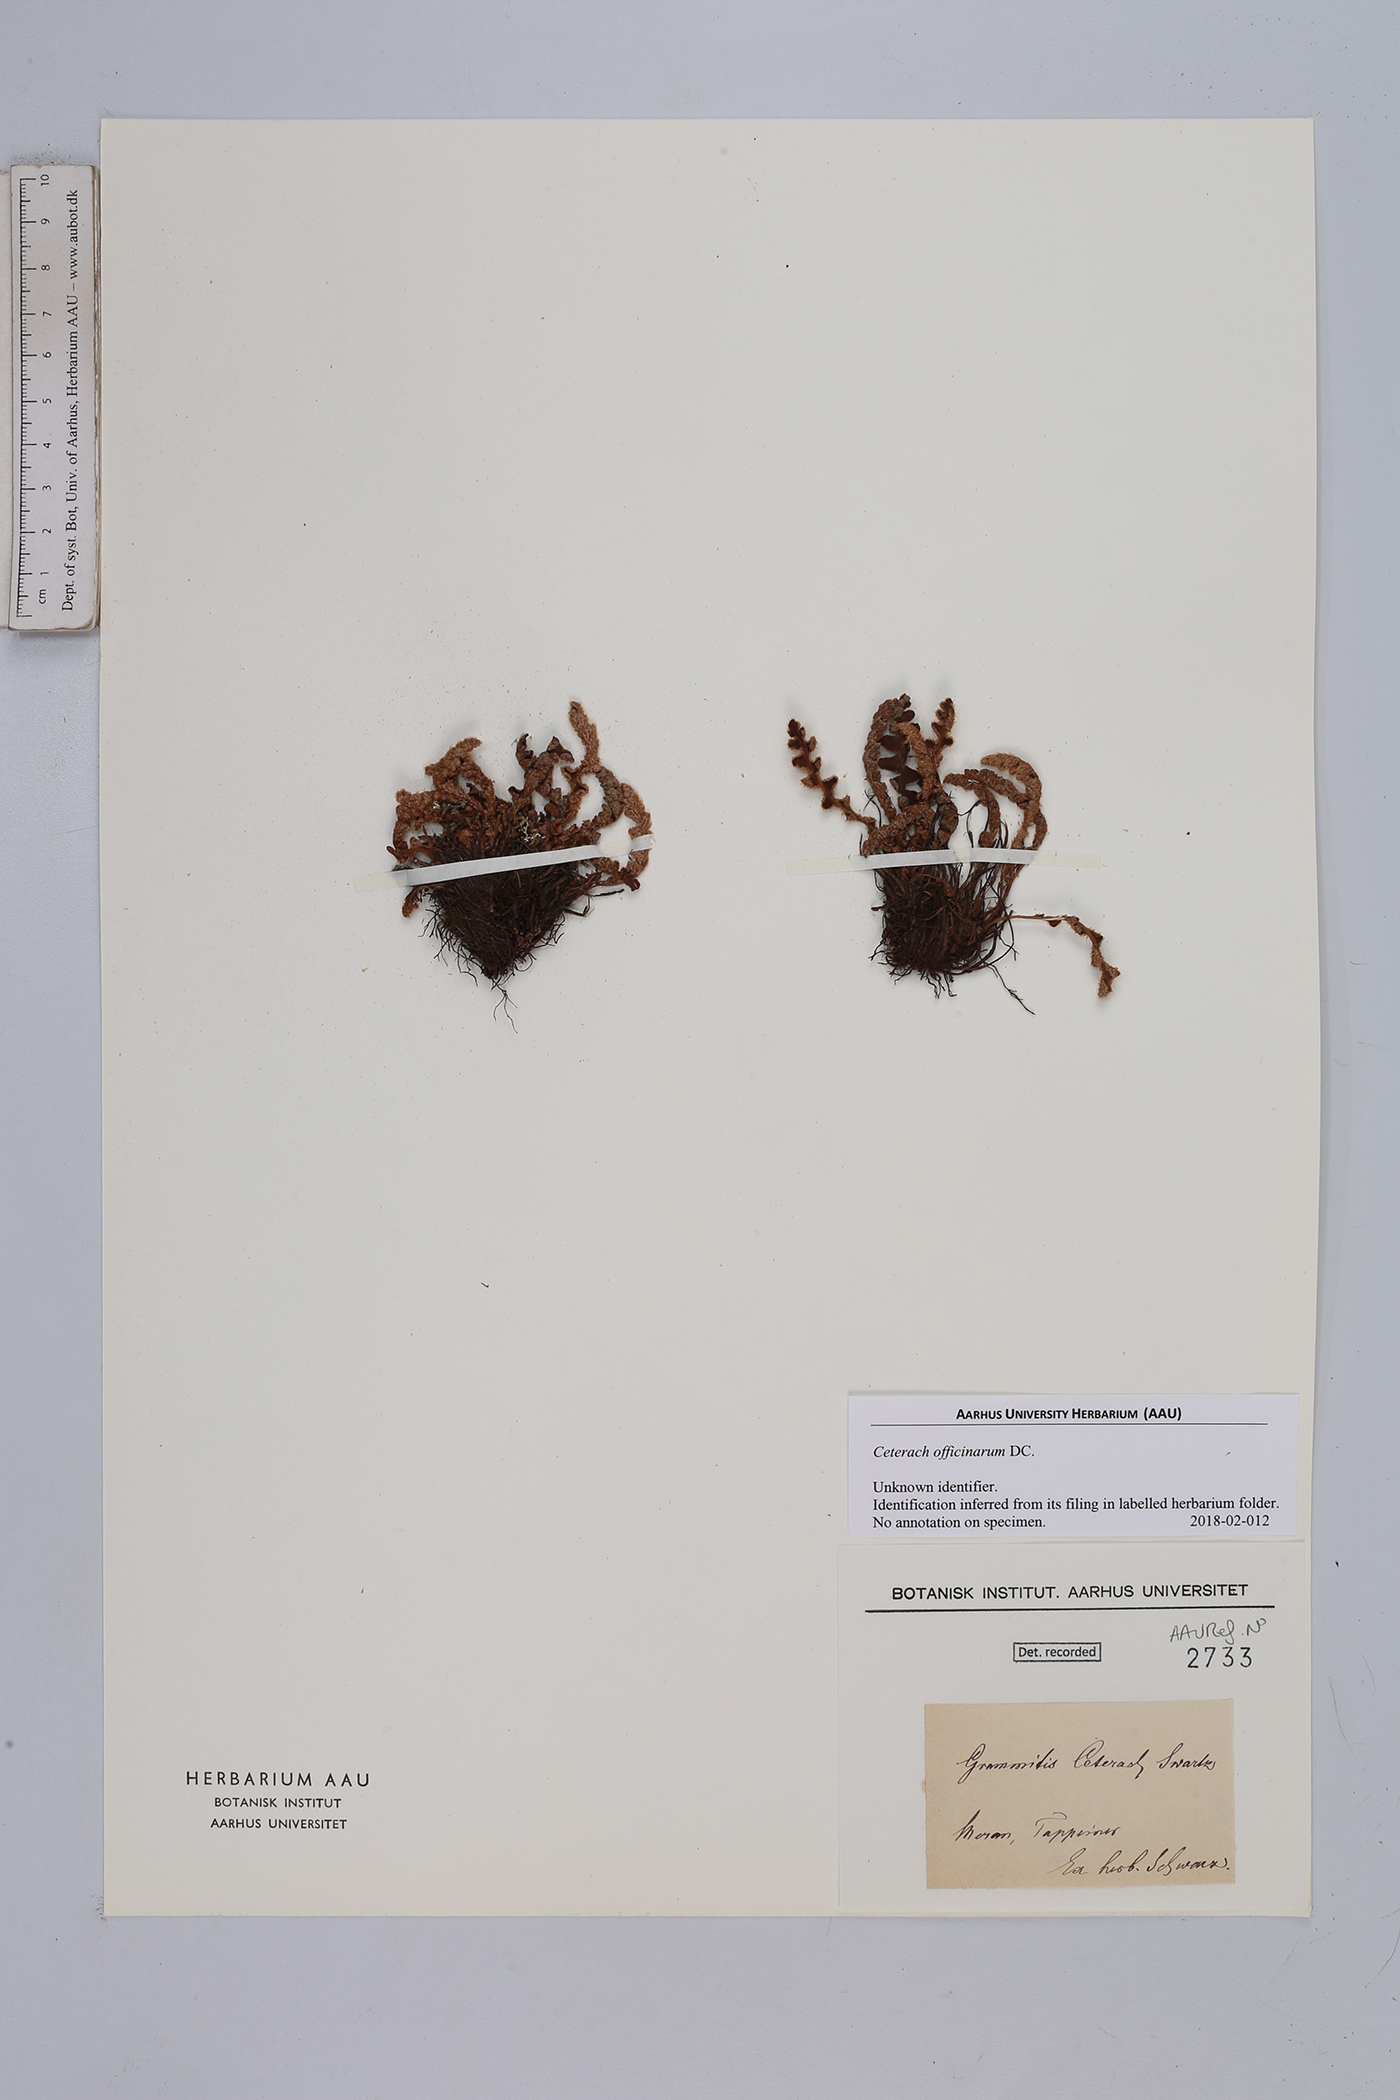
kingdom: Plantae
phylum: Tracheophyta
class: Polypodiopsida
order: Polypodiales
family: Aspleniaceae
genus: Asplenium
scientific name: Asplenium ceterach
